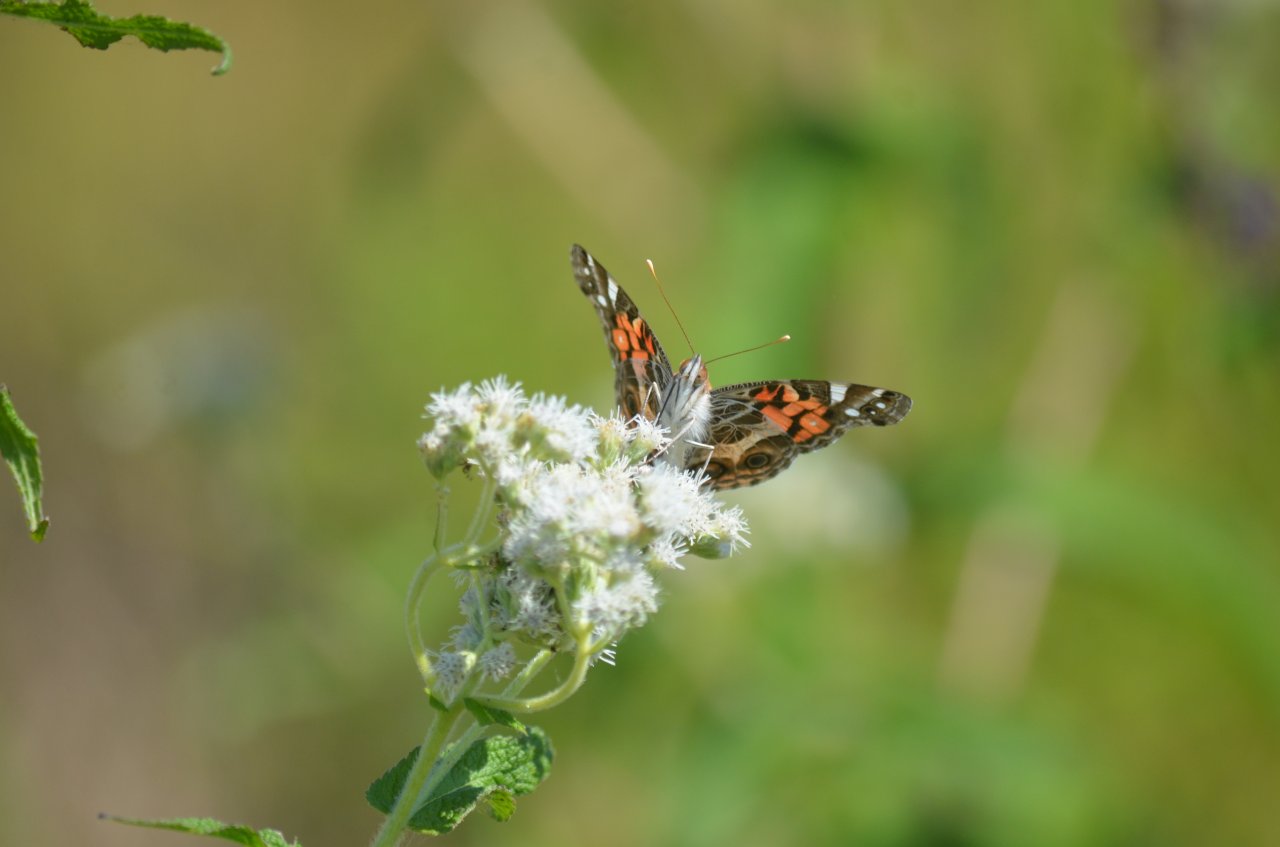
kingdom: Animalia
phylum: Arthropoda
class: Insecta
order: Lepidoptera
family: Nymphalidae
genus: Vanessa
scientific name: Vanessa virginiensis
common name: American Lady
